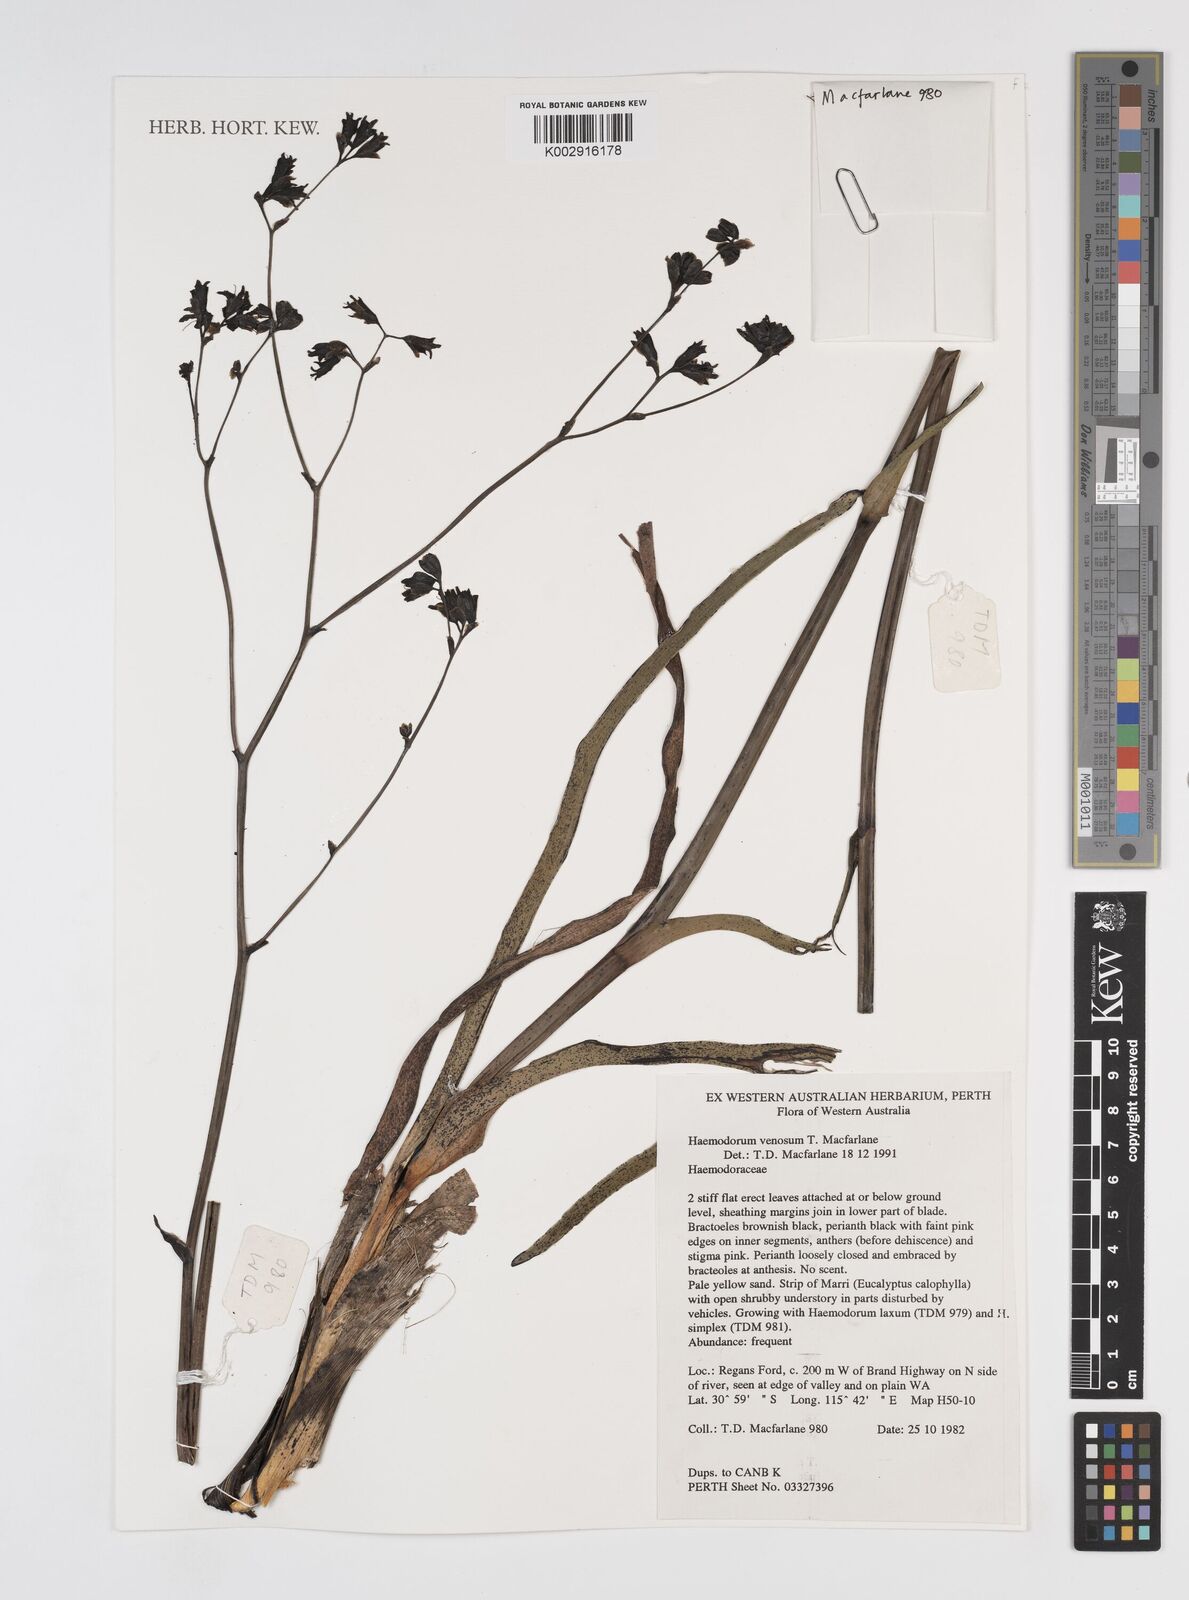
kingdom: Plantae
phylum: Tracheophyta
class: Liliopsida
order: Commelinales
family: Haemodoraceae
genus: Haemodorum
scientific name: Haemodorum venosum
